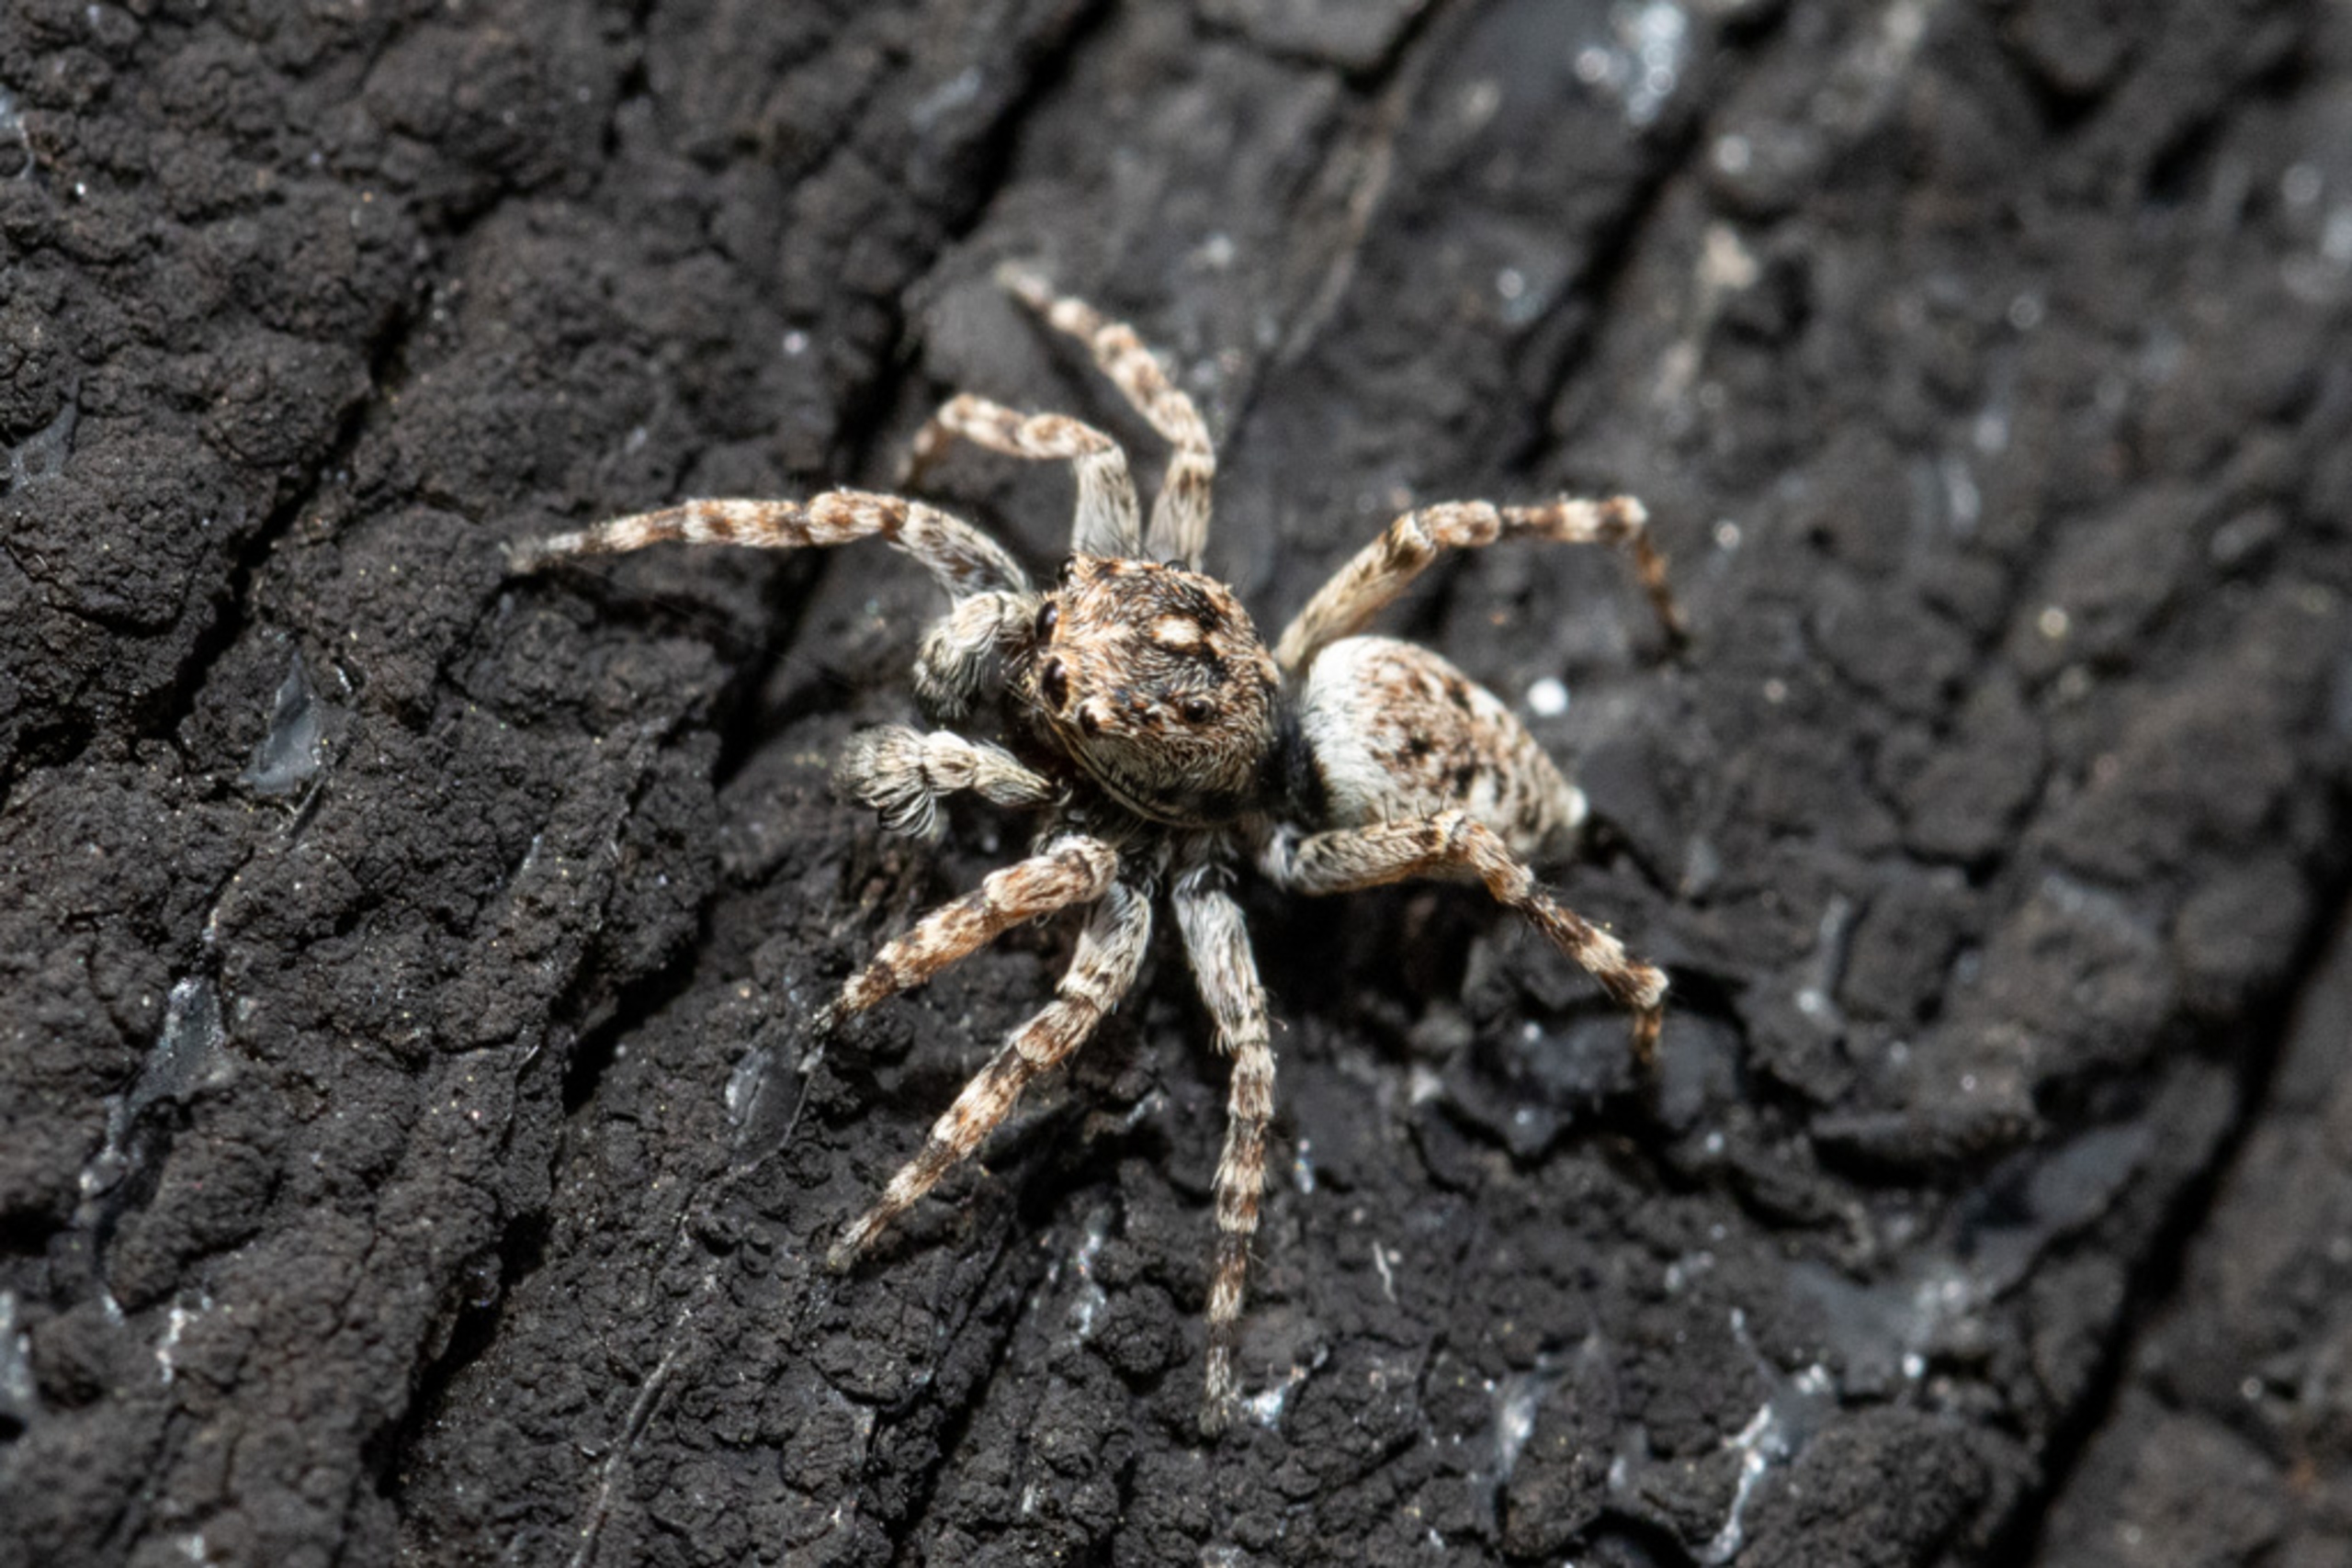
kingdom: Animalia
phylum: Arthropoda
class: Arachnida
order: Araneae
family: Salticidae
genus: Attulus
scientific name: Attulus pubescens
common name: Murspringer
